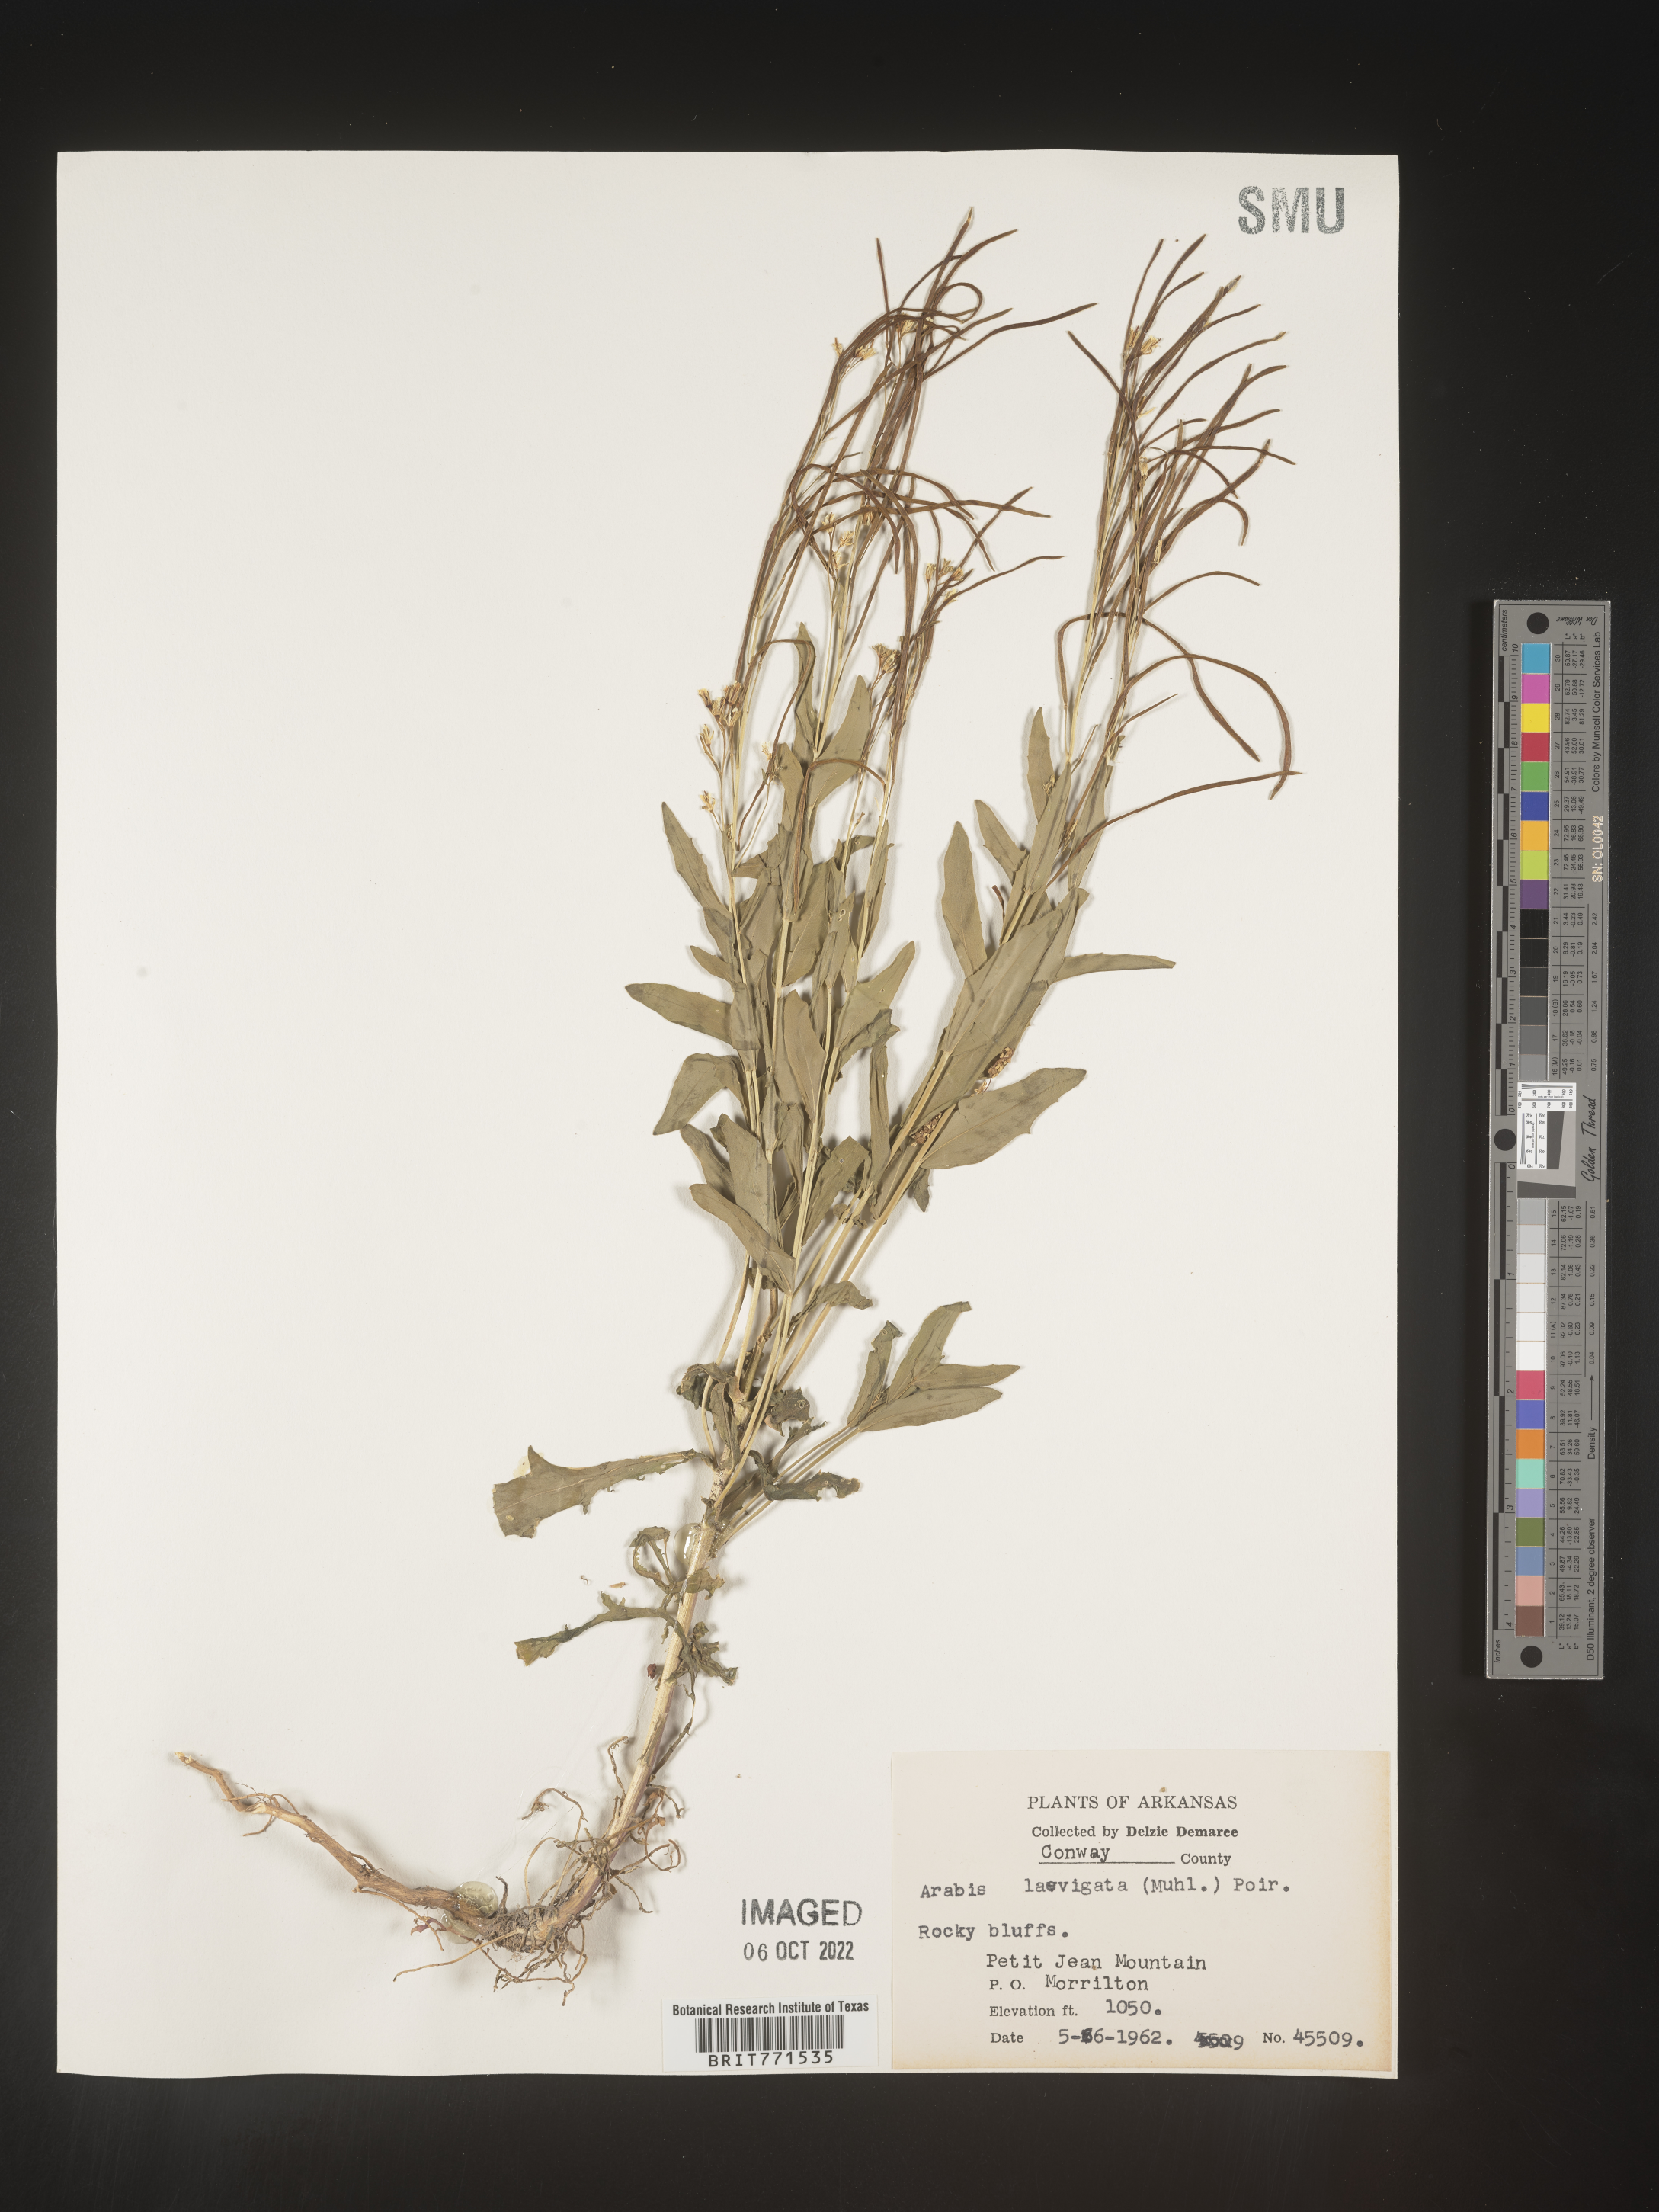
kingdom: Plantae
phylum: Tracheophyta
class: Magnoliopsida
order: Brassicales
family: Brassicaceae
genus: Arabis
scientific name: Arabis laevigata
